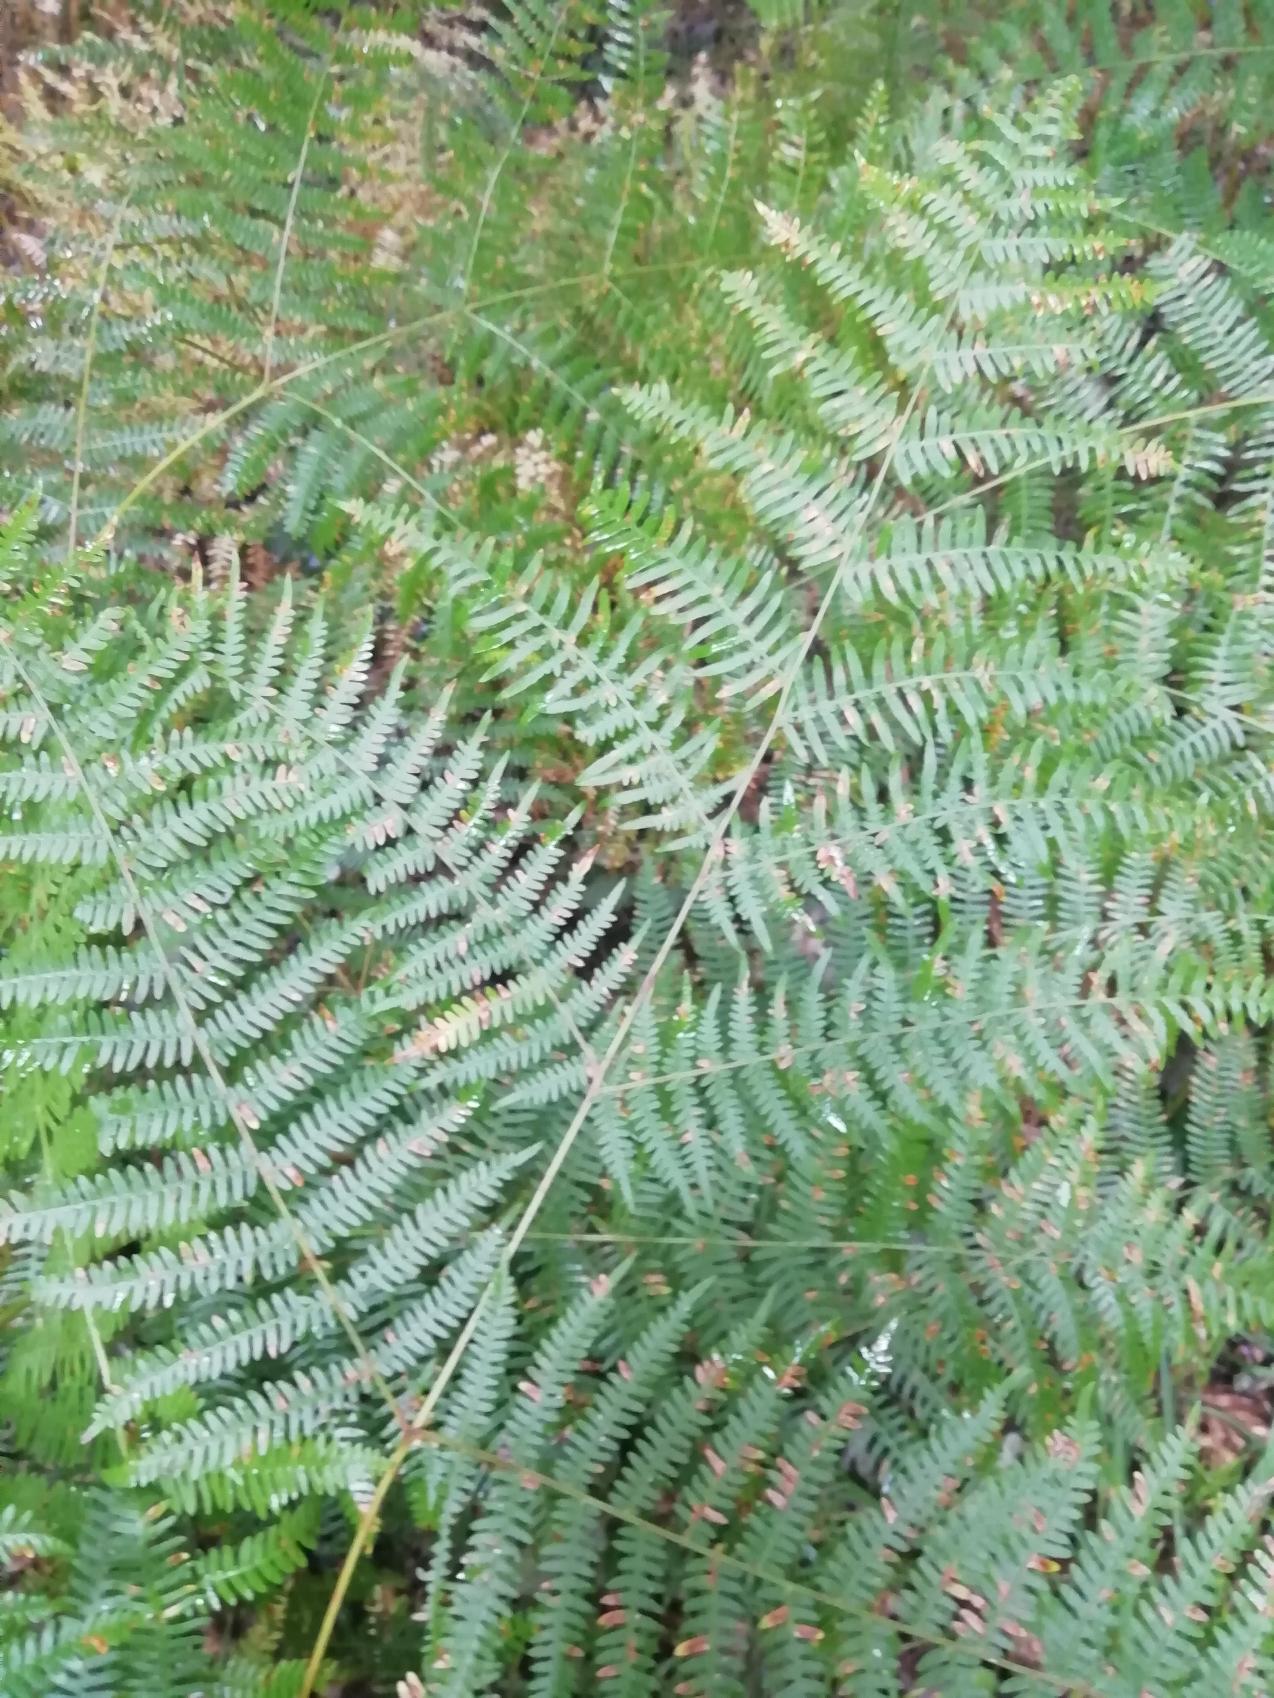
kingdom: Plantae
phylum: Tracheophyta
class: Polypodiopsida
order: Polypodiales
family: Dennstaedtiaceae
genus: Pteridium
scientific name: Pteridium aquilinum
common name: Ørnebregne
